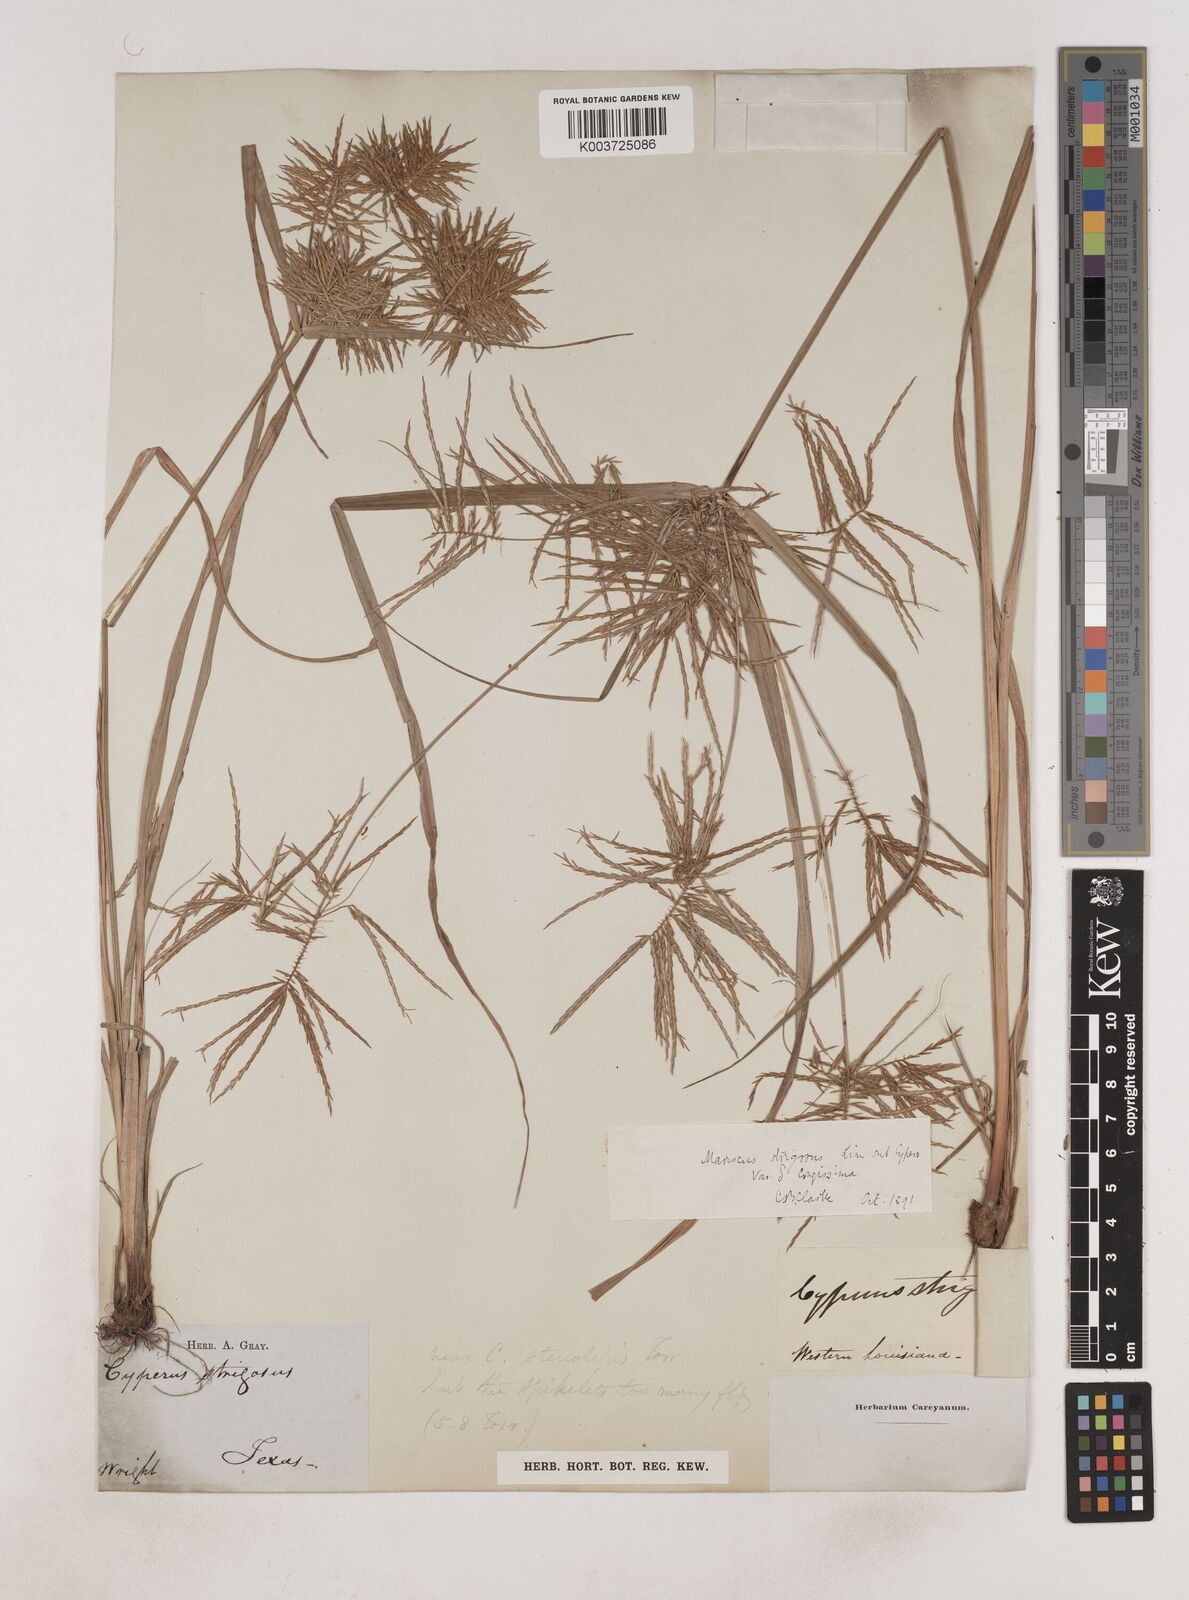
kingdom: Plantae
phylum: Tracheophyta
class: Liliopsida
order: Poales
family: Cyperaceae
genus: Cyperus
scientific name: Cyperus strigosus
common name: False nutsedge
